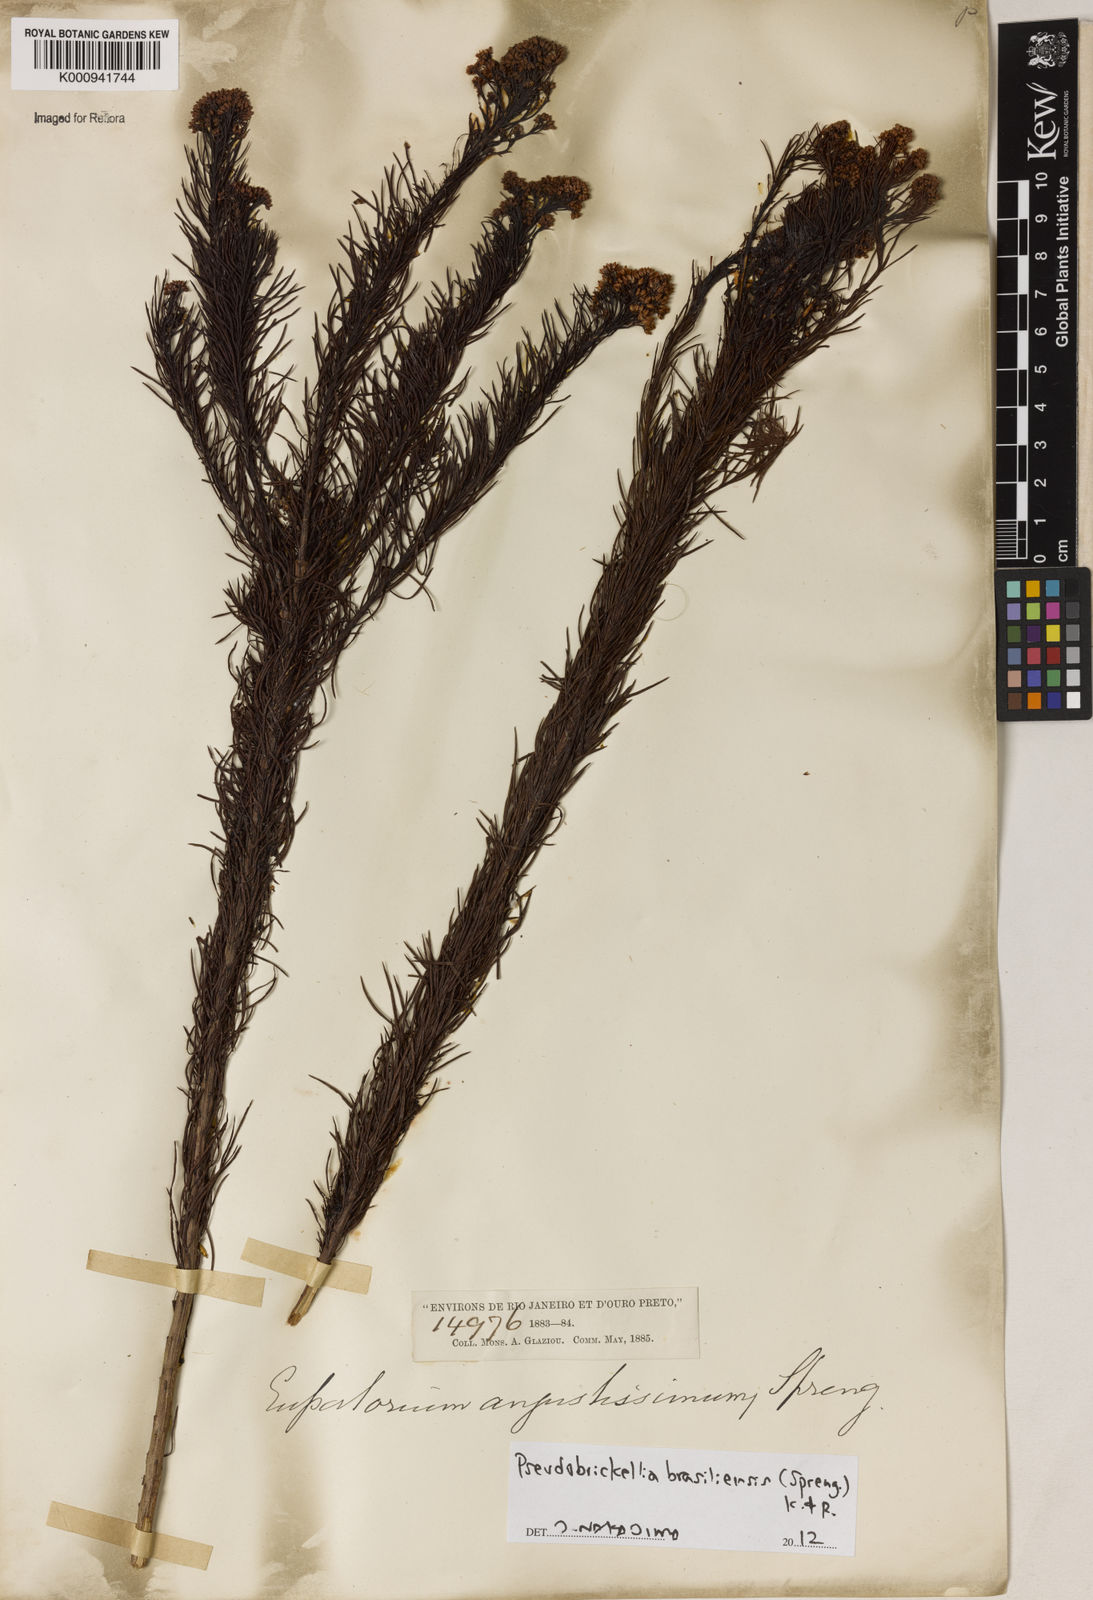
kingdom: Plantae
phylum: Tracheophyta
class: Magnoliopsida
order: Asterales
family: Asteraceae
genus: Pseudobrickellia
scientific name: Pseudobrickellia brasiliensis
